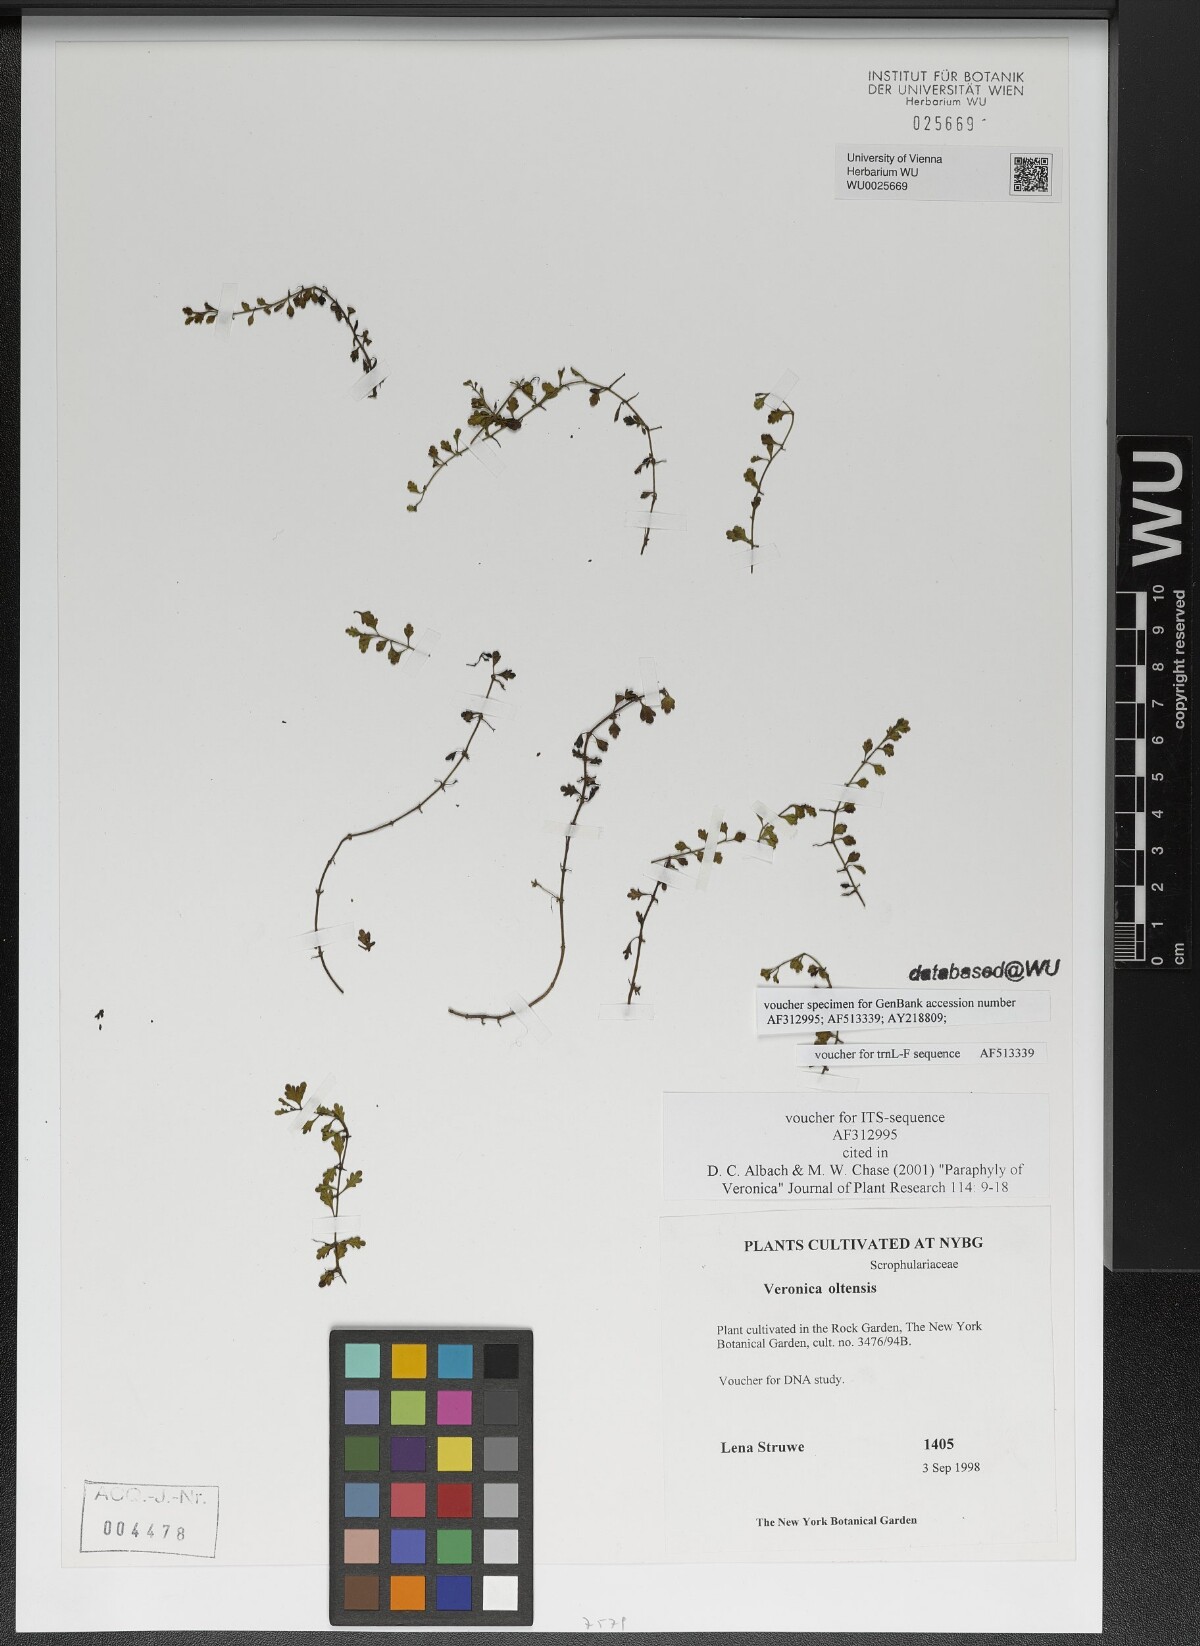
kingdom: Plantae
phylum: Tracheophyta
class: Magnoliopsida
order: Lamiales
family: Plantaginaceae
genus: Veronica
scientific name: Veronica oltensis
